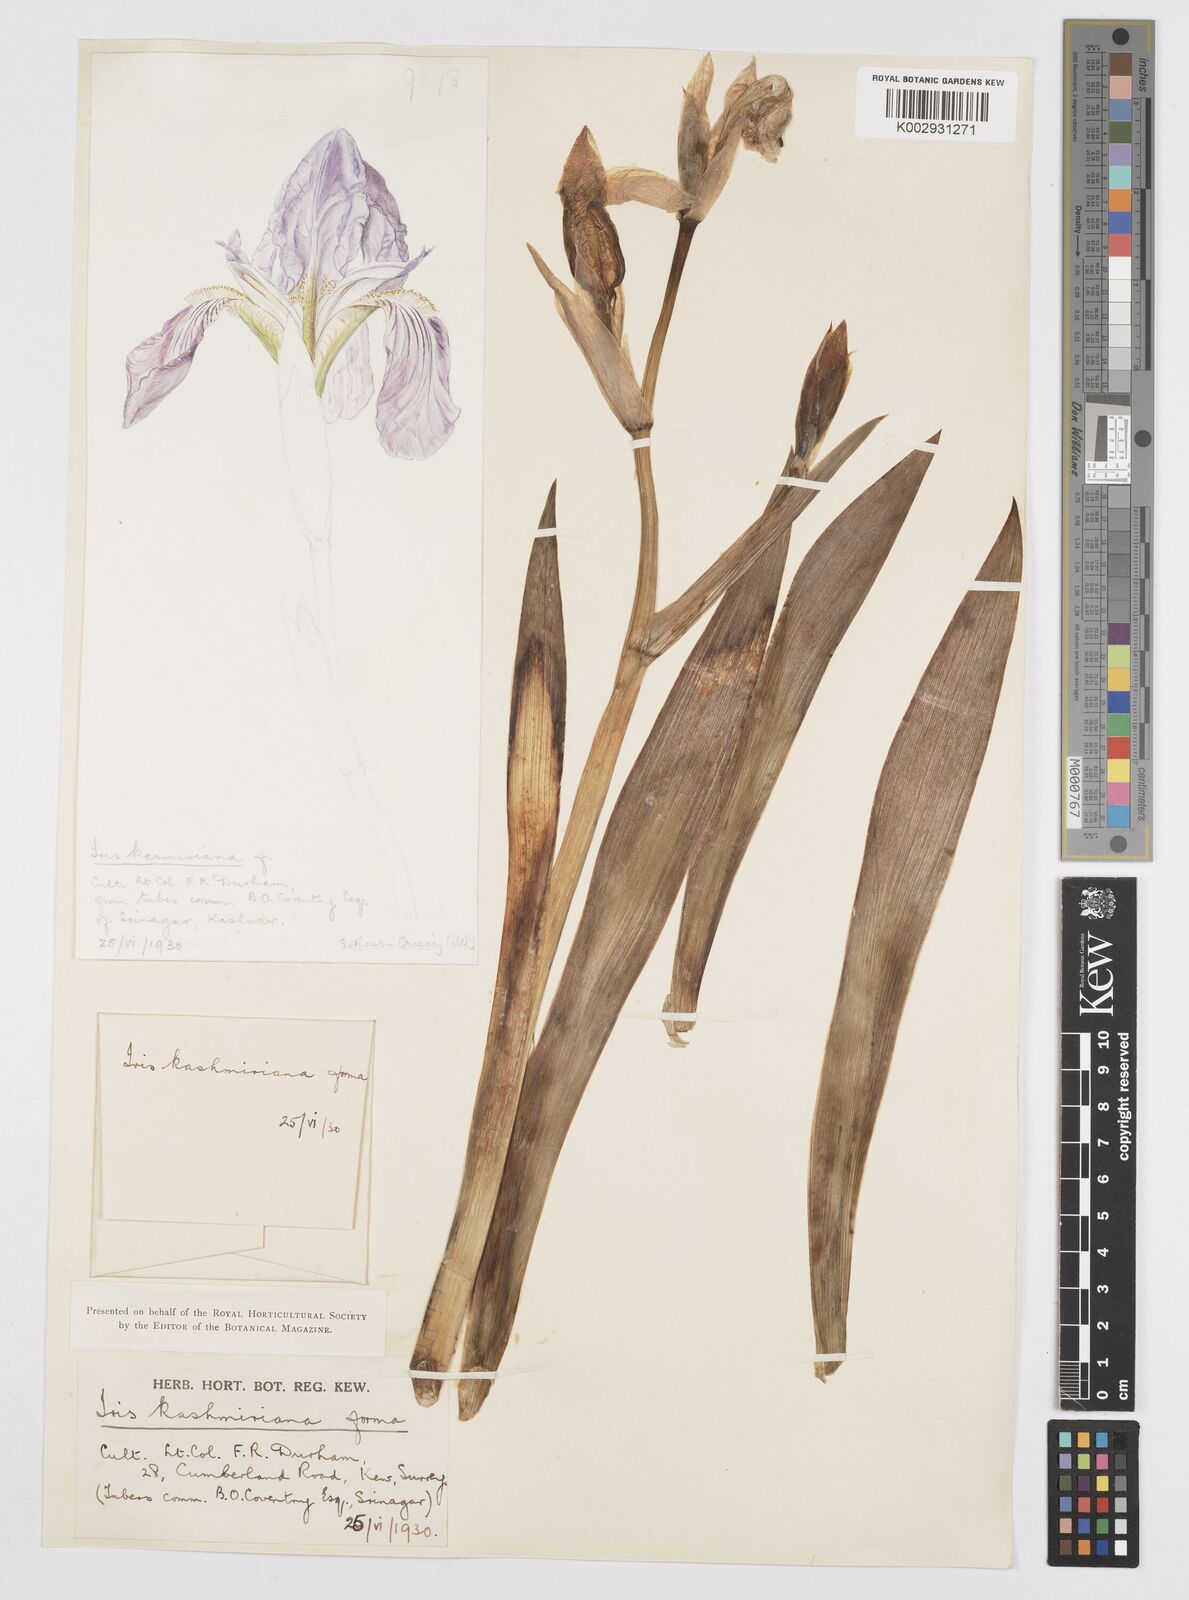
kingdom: Plantae
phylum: Tracheophyta
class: Liliopsida
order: Asparagales
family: Iridaceae
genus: Iris
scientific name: Iris kashmiriana
